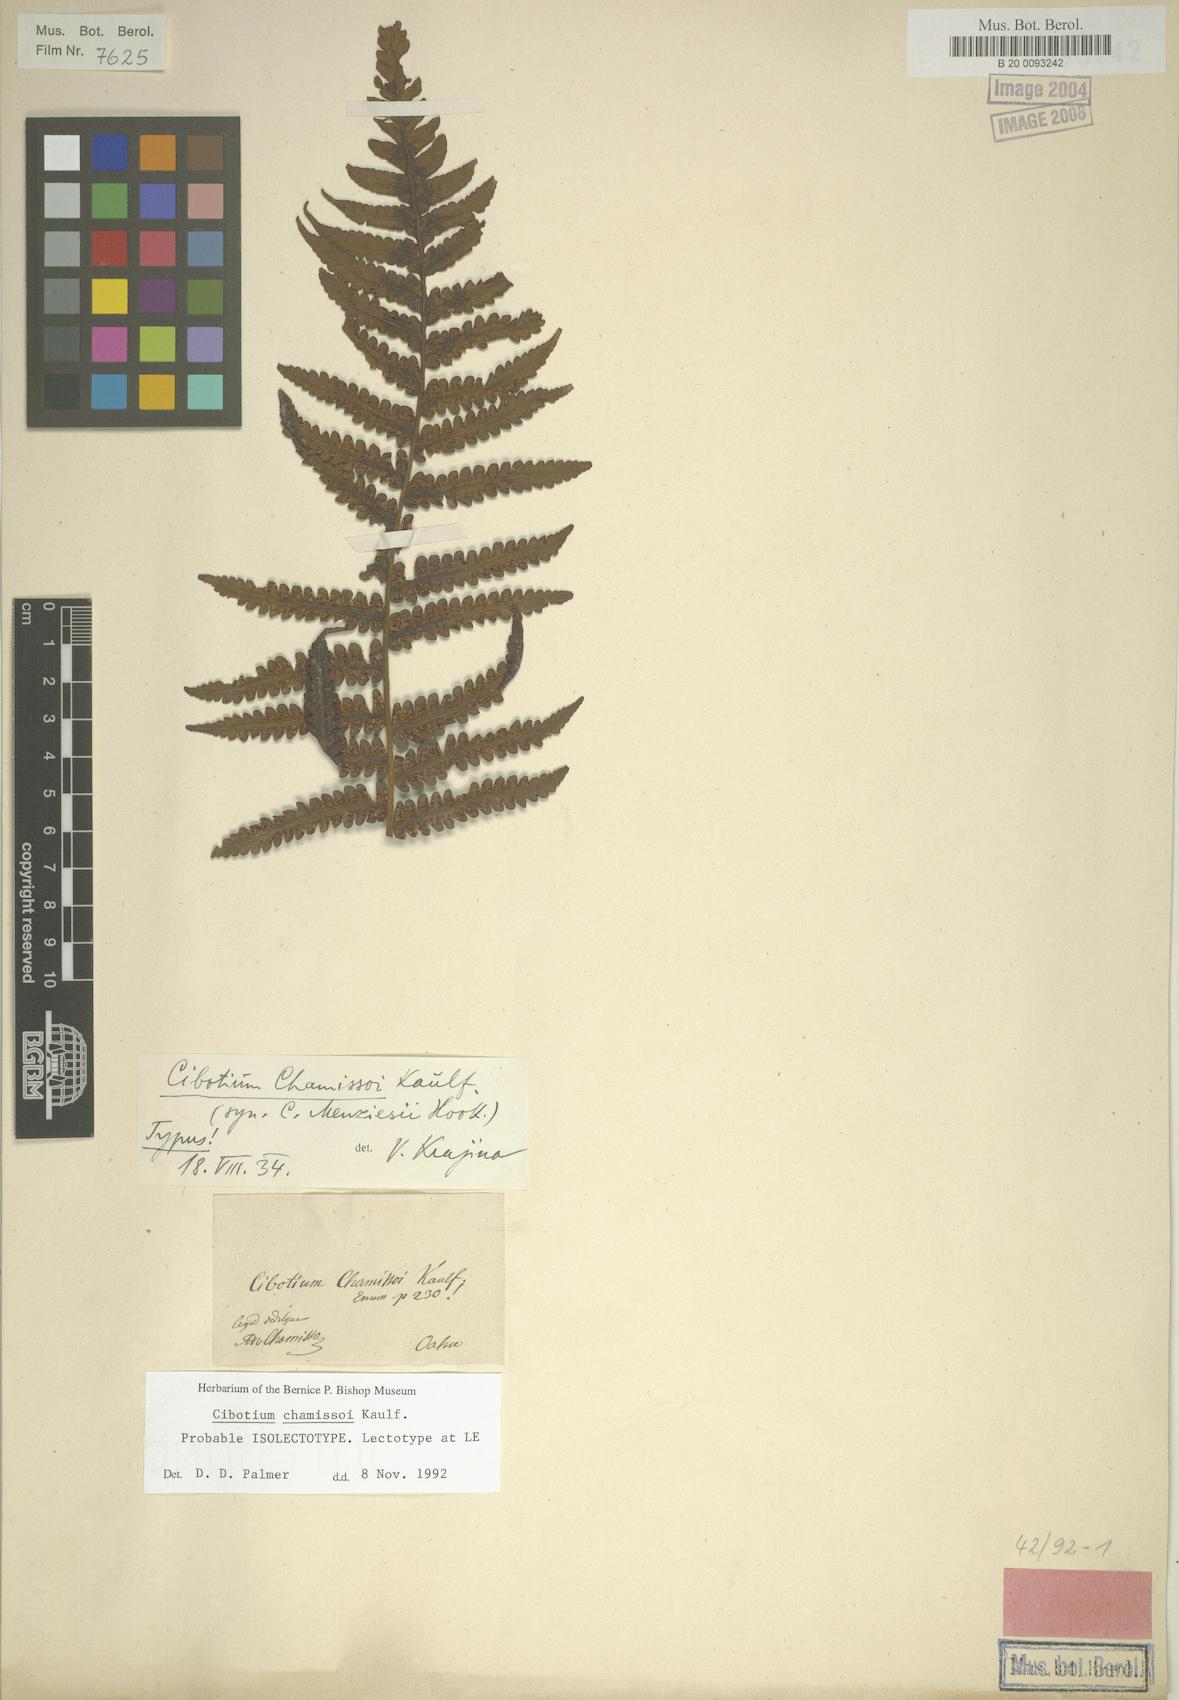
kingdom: Plantae
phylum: Tracheophyta
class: Polypodiopsida
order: Cyatheales
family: Cibotiaceae
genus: Cibotium
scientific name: Cibotium chamissoi
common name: Hawaiian tree fern
